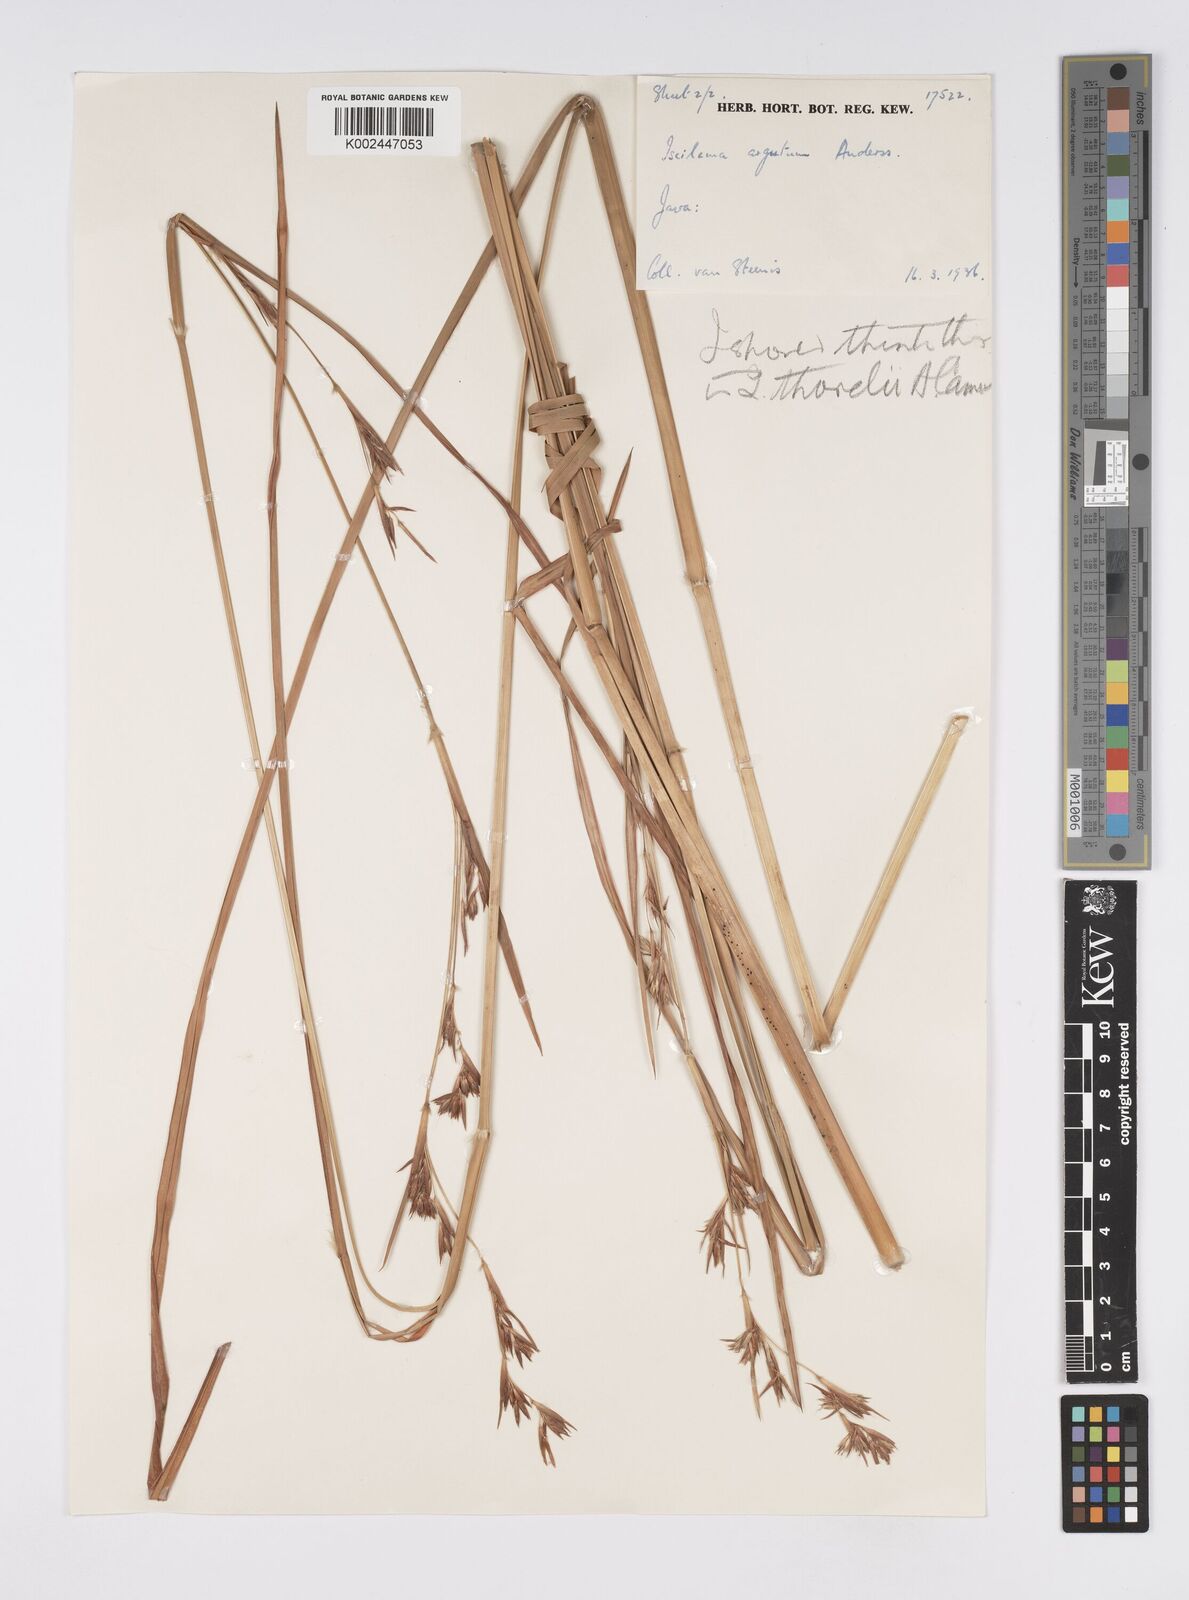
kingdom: Plantae
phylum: Tracheophyta
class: Liliopsida
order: Poales
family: Poaceae
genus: Iseilema
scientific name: Iseilema thorelii
